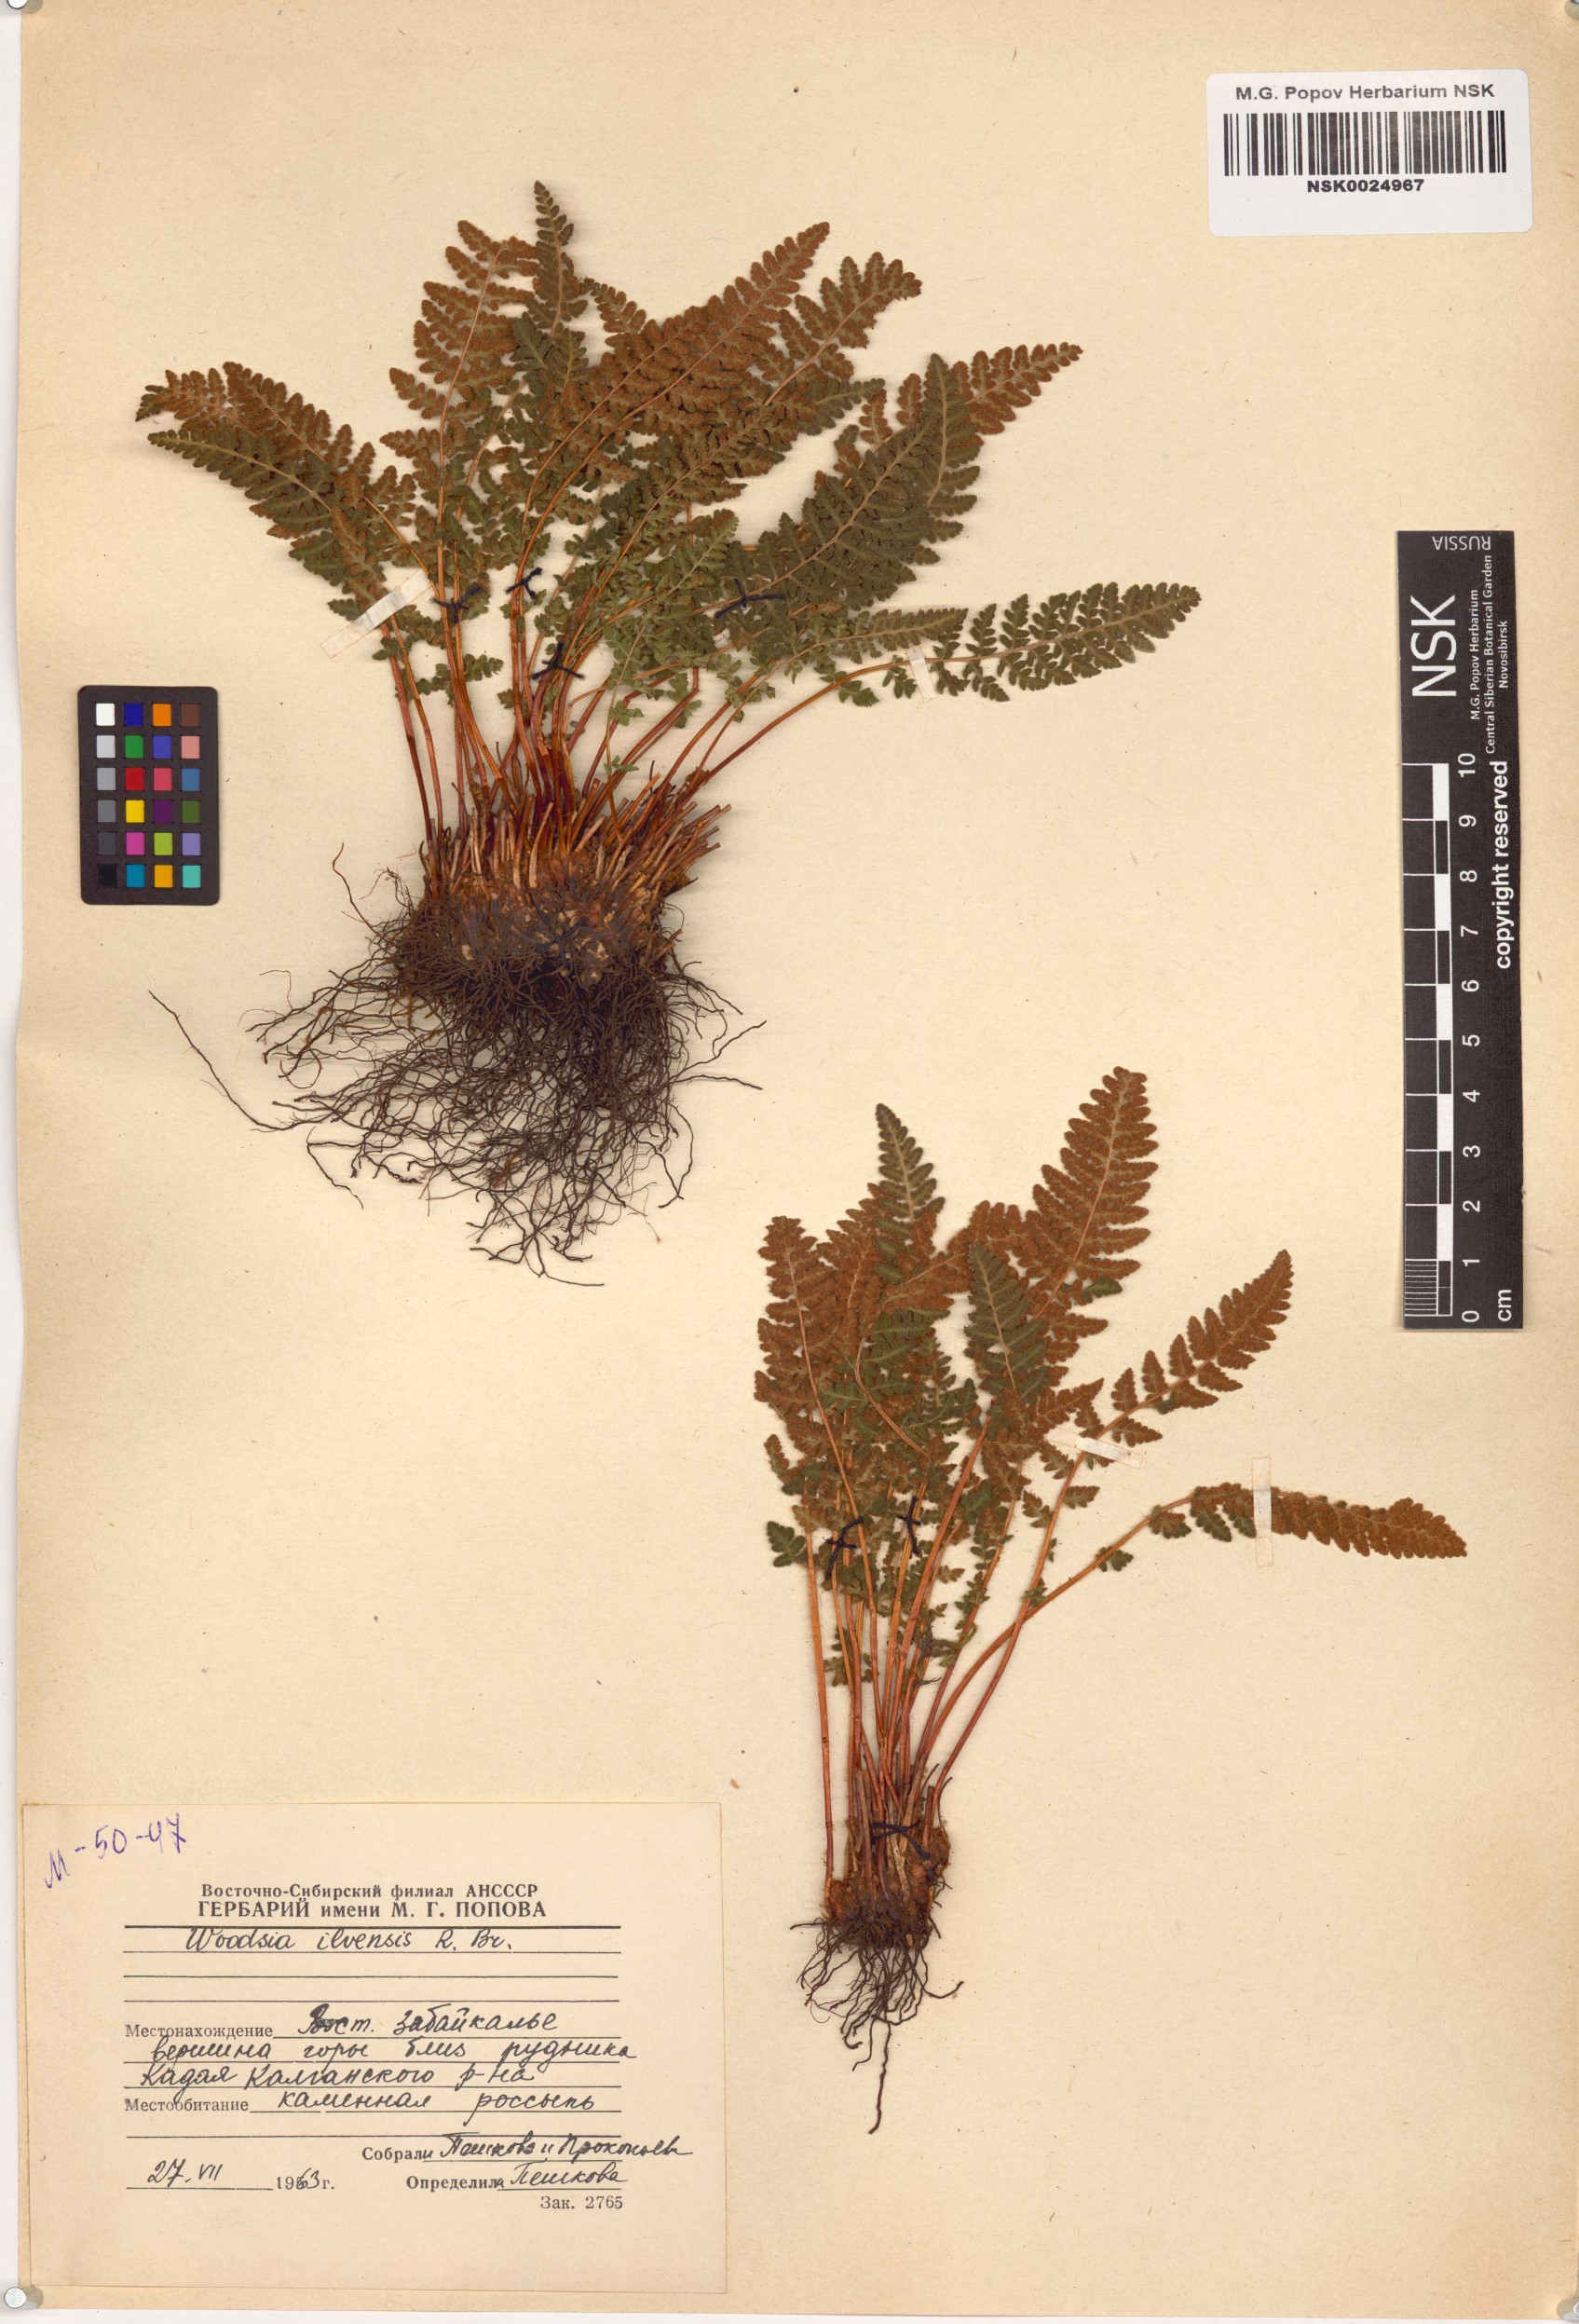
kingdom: Plantae
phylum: Tracheophyta
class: Polypodiopsida
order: Polypodiales
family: Woodsiaceae
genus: Woodsia
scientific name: Woodsia ilvensis
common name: Fragrant woodsia
